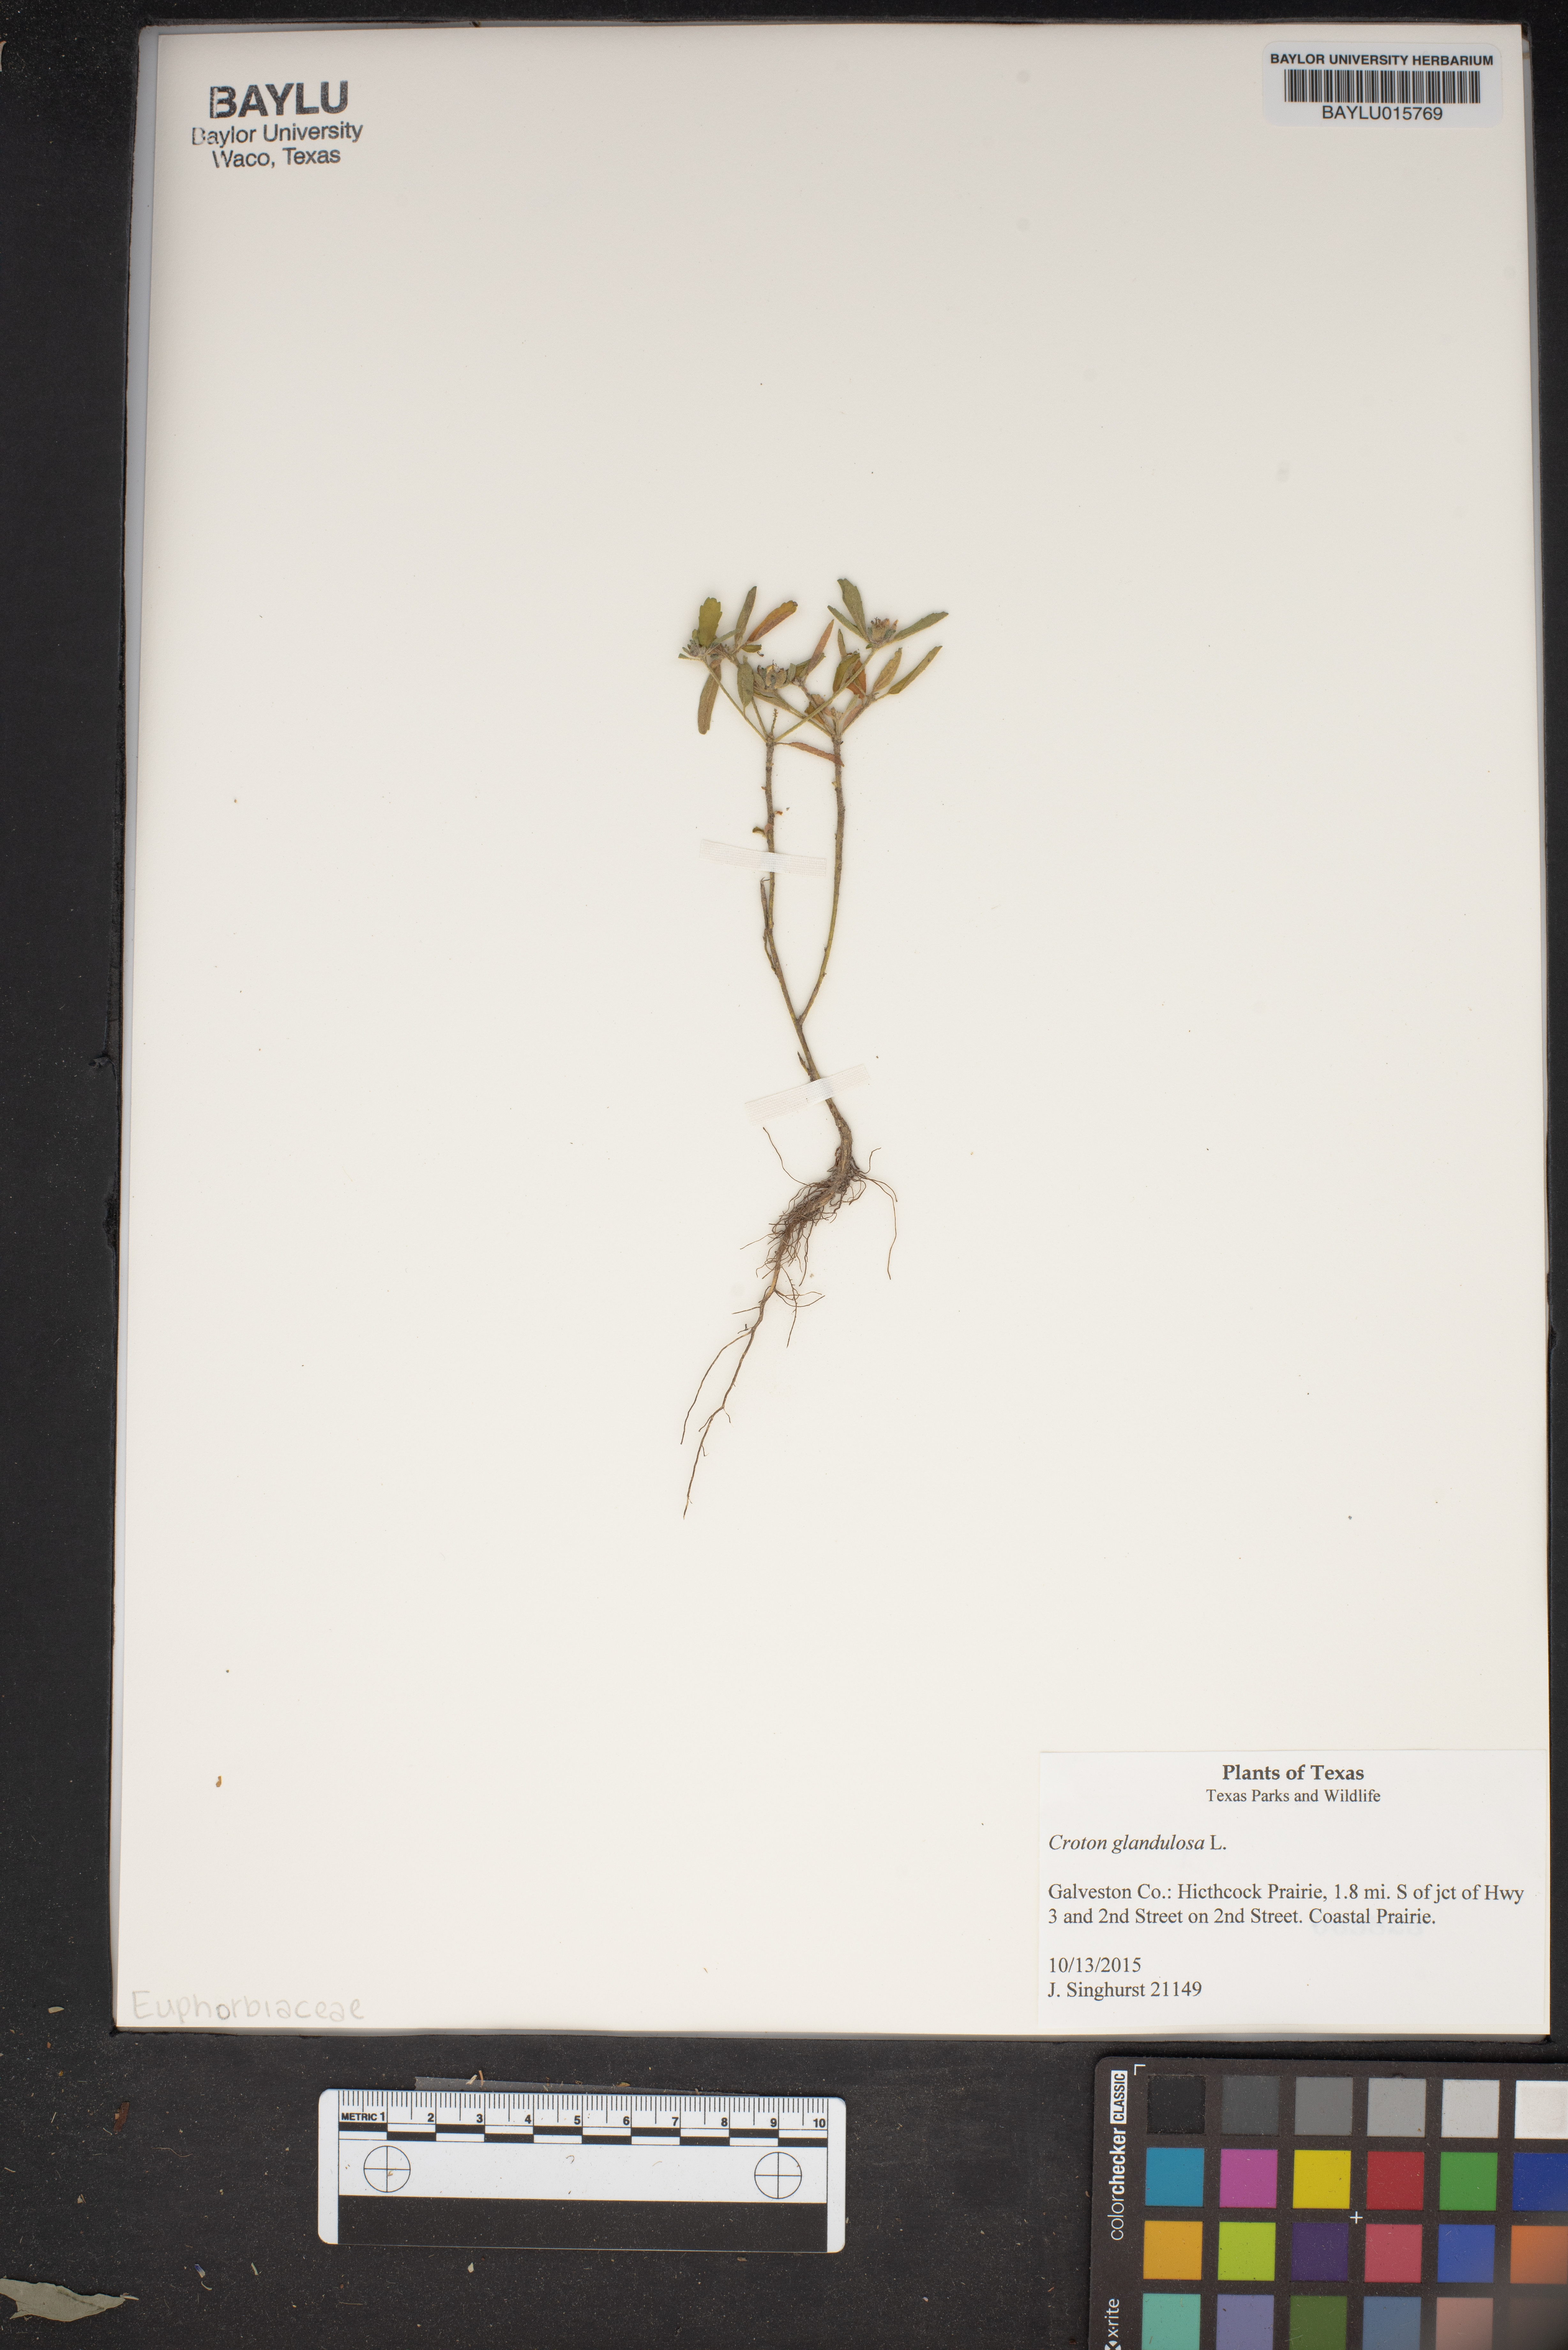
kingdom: Plantae
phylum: Tracheophyta
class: Magnoliopsida
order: Malpighiales
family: Euphorbiaceae
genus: Croton
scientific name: Croton glandulosus
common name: Tropic croton
